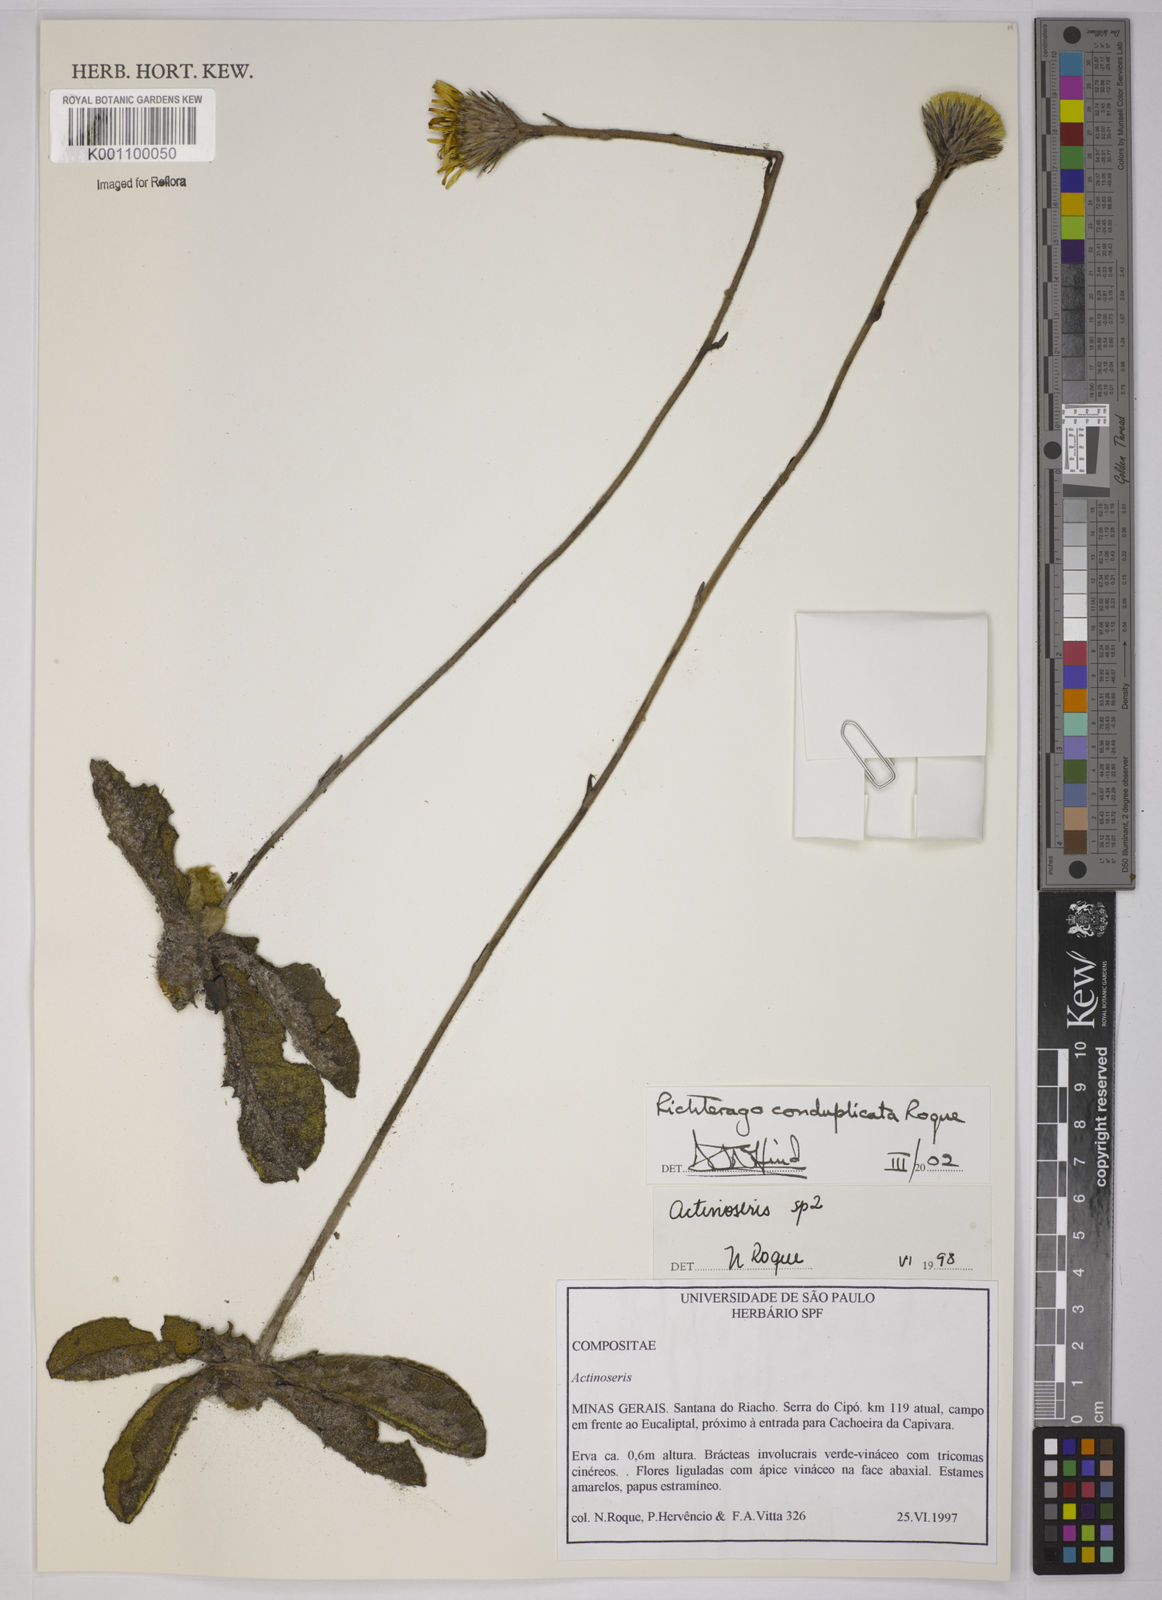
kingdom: Plantae
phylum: Tracheophyta
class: Magnoliopsida
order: Asterales
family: Asteraceae
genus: Richterago
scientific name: Richterago conduplicata
